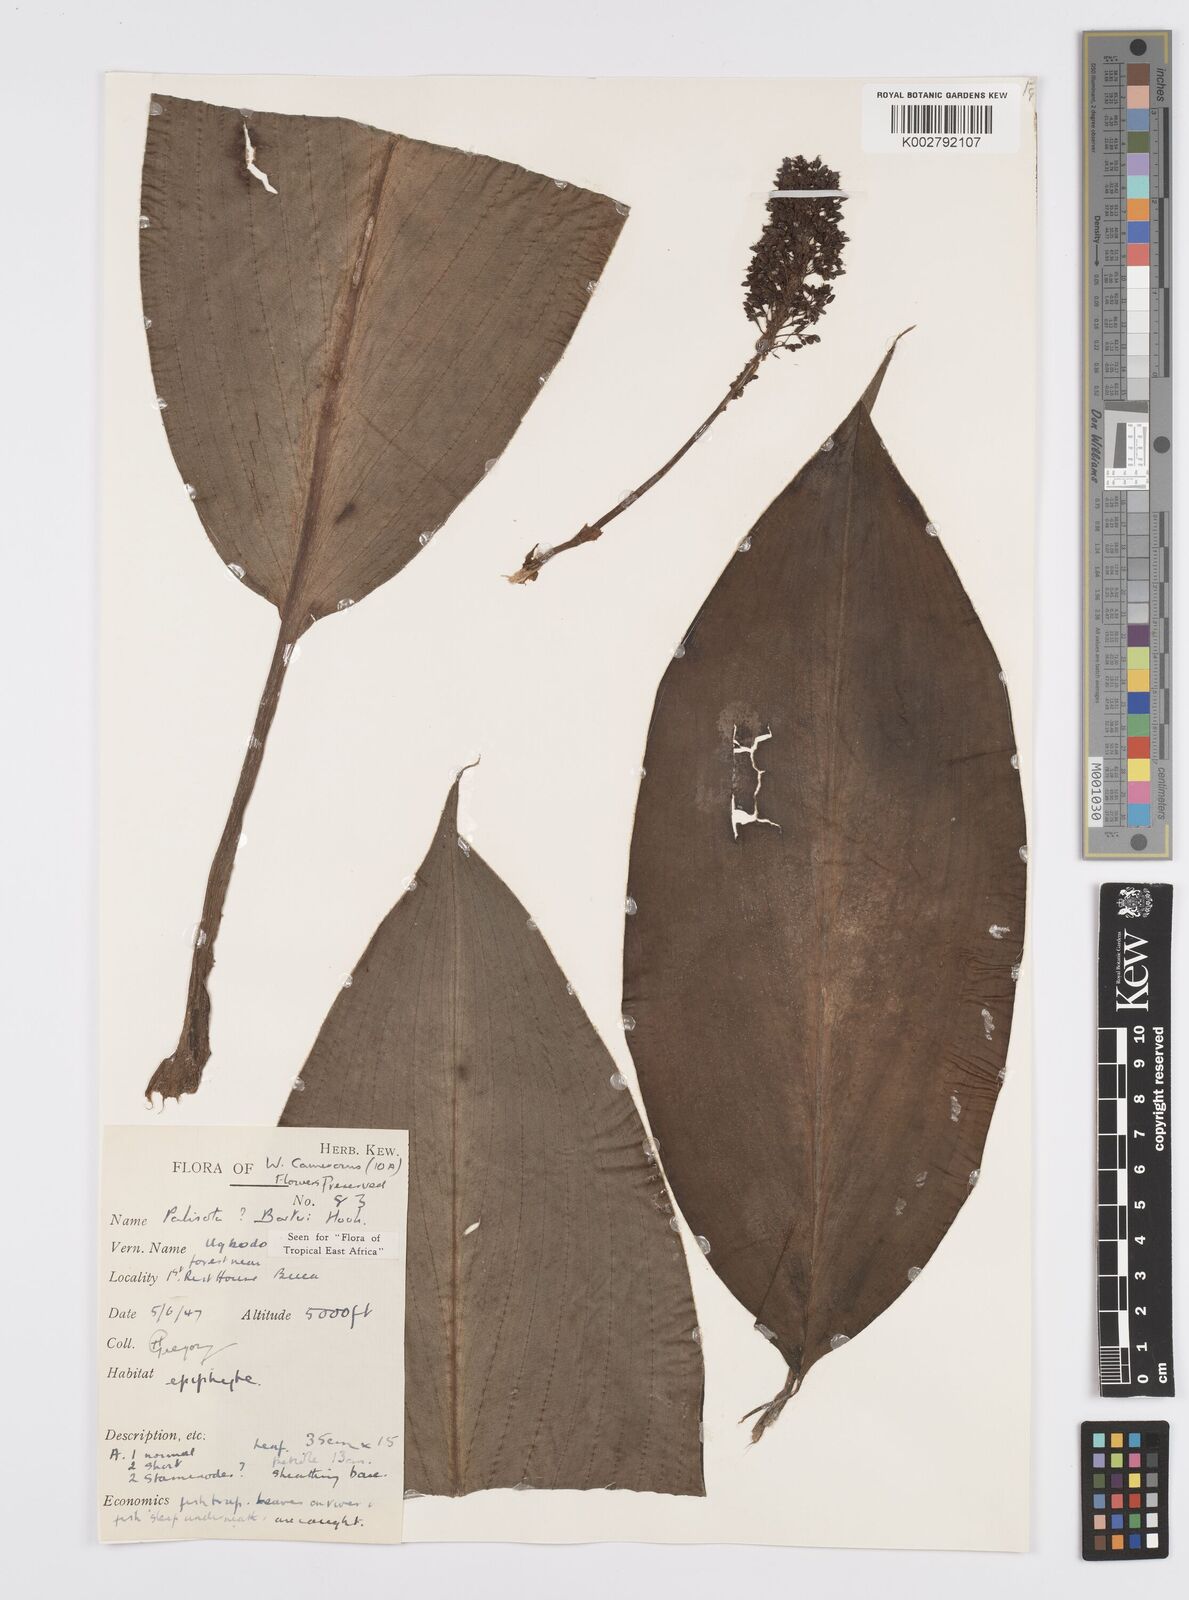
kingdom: Plantae
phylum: Tracheophyta
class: Liliopsida
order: Commelinales
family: Commelinaceae
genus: Palisota
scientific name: Palisota barteri
